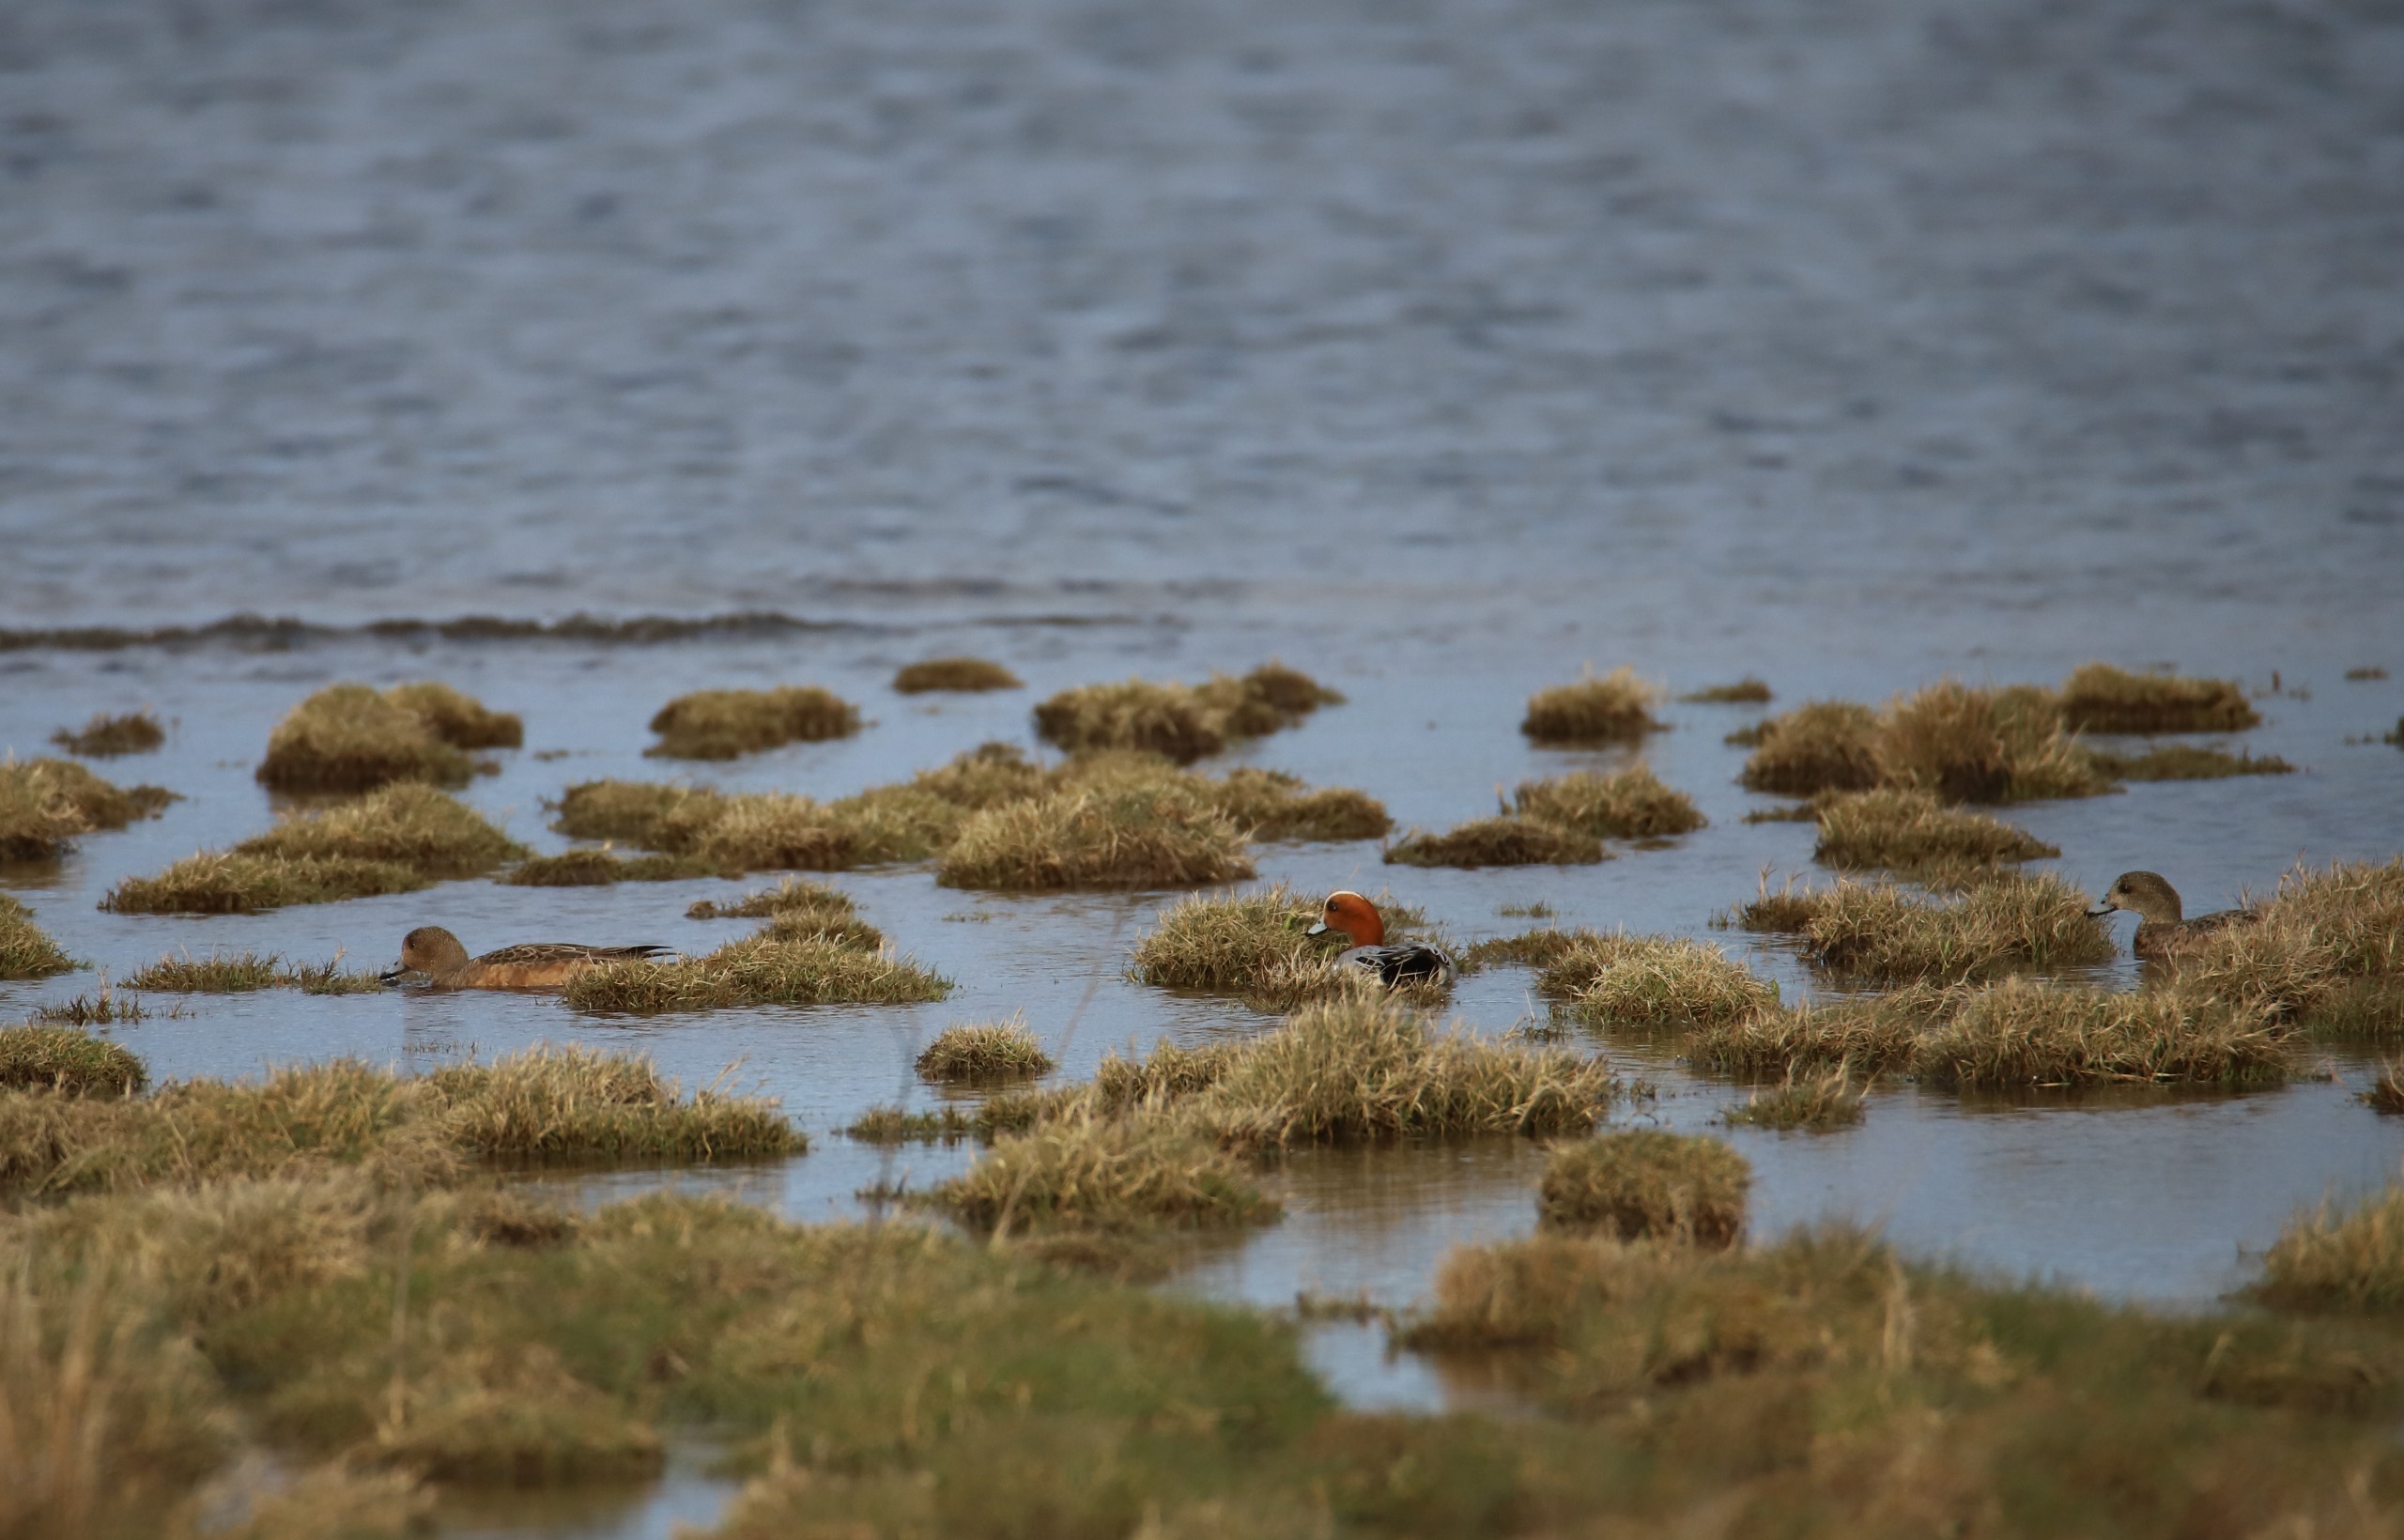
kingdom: Animalia
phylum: Chordata
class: Aves
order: Anseriformes
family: Anatidae
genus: Mareca
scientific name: Mareca penelope
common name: Pibeand
